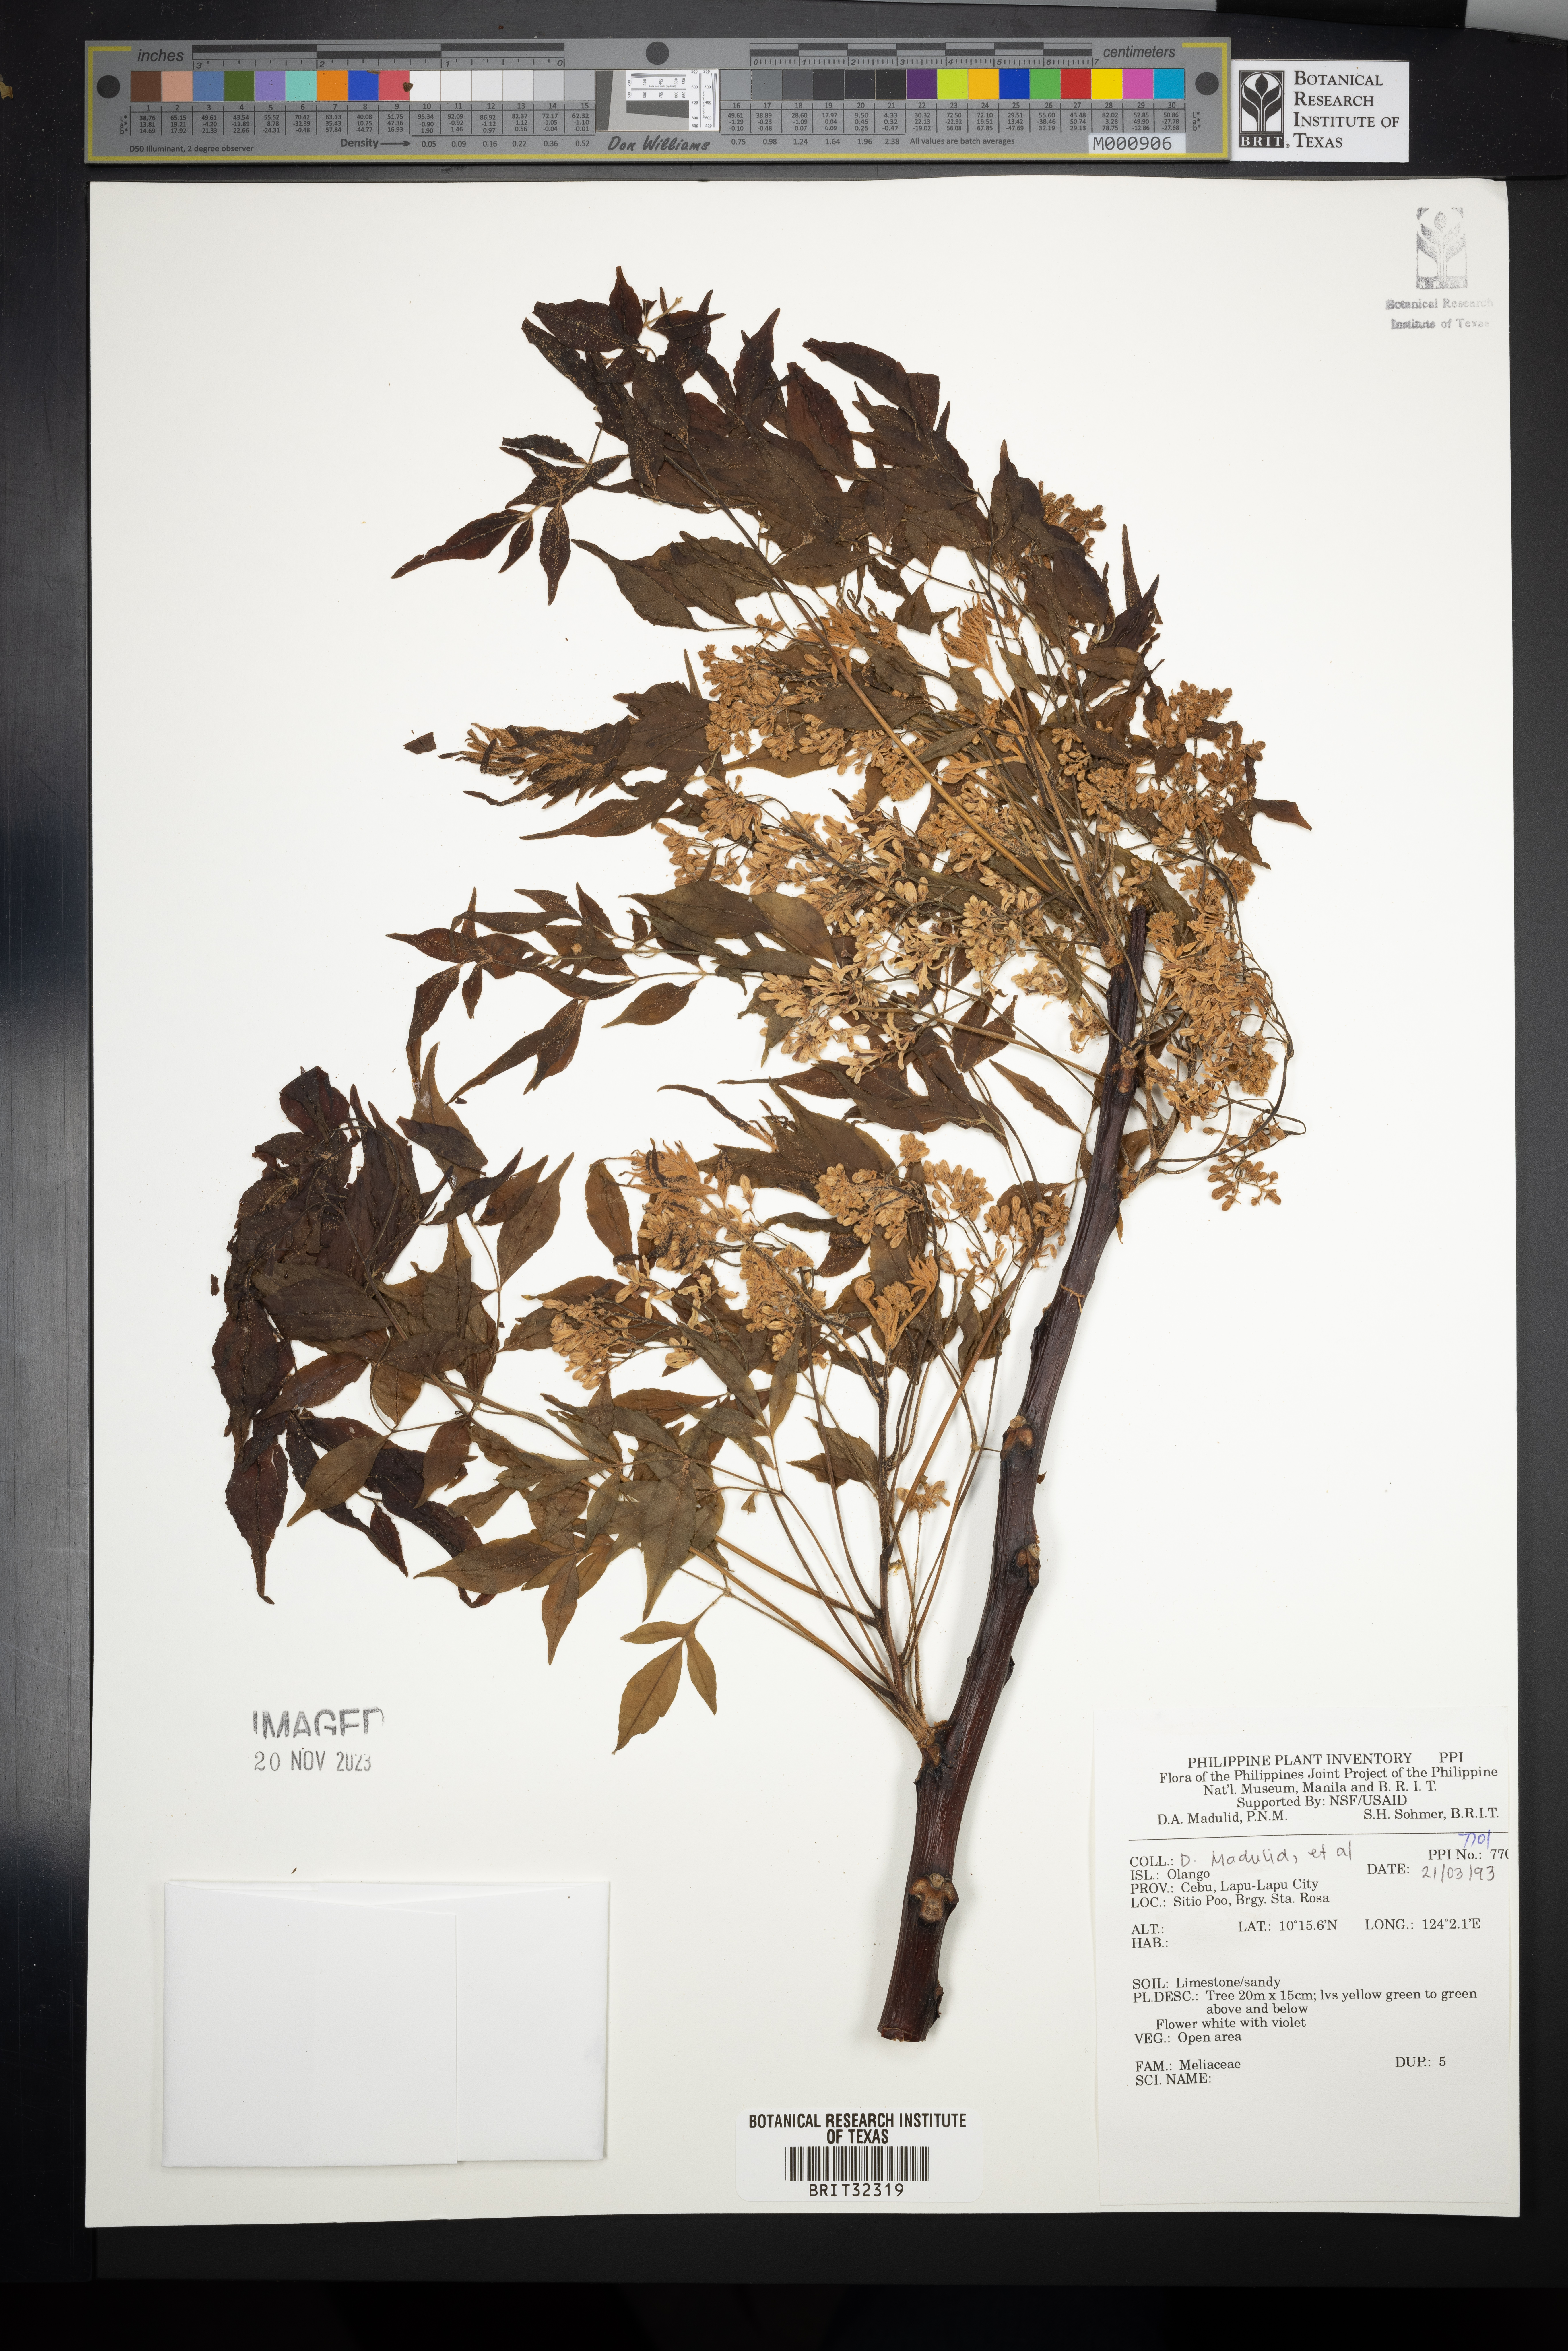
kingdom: Plantae
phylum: Tracheophyta
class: Magnoliopsida
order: Sapindales
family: Meliaceae
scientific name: Meliaceae
